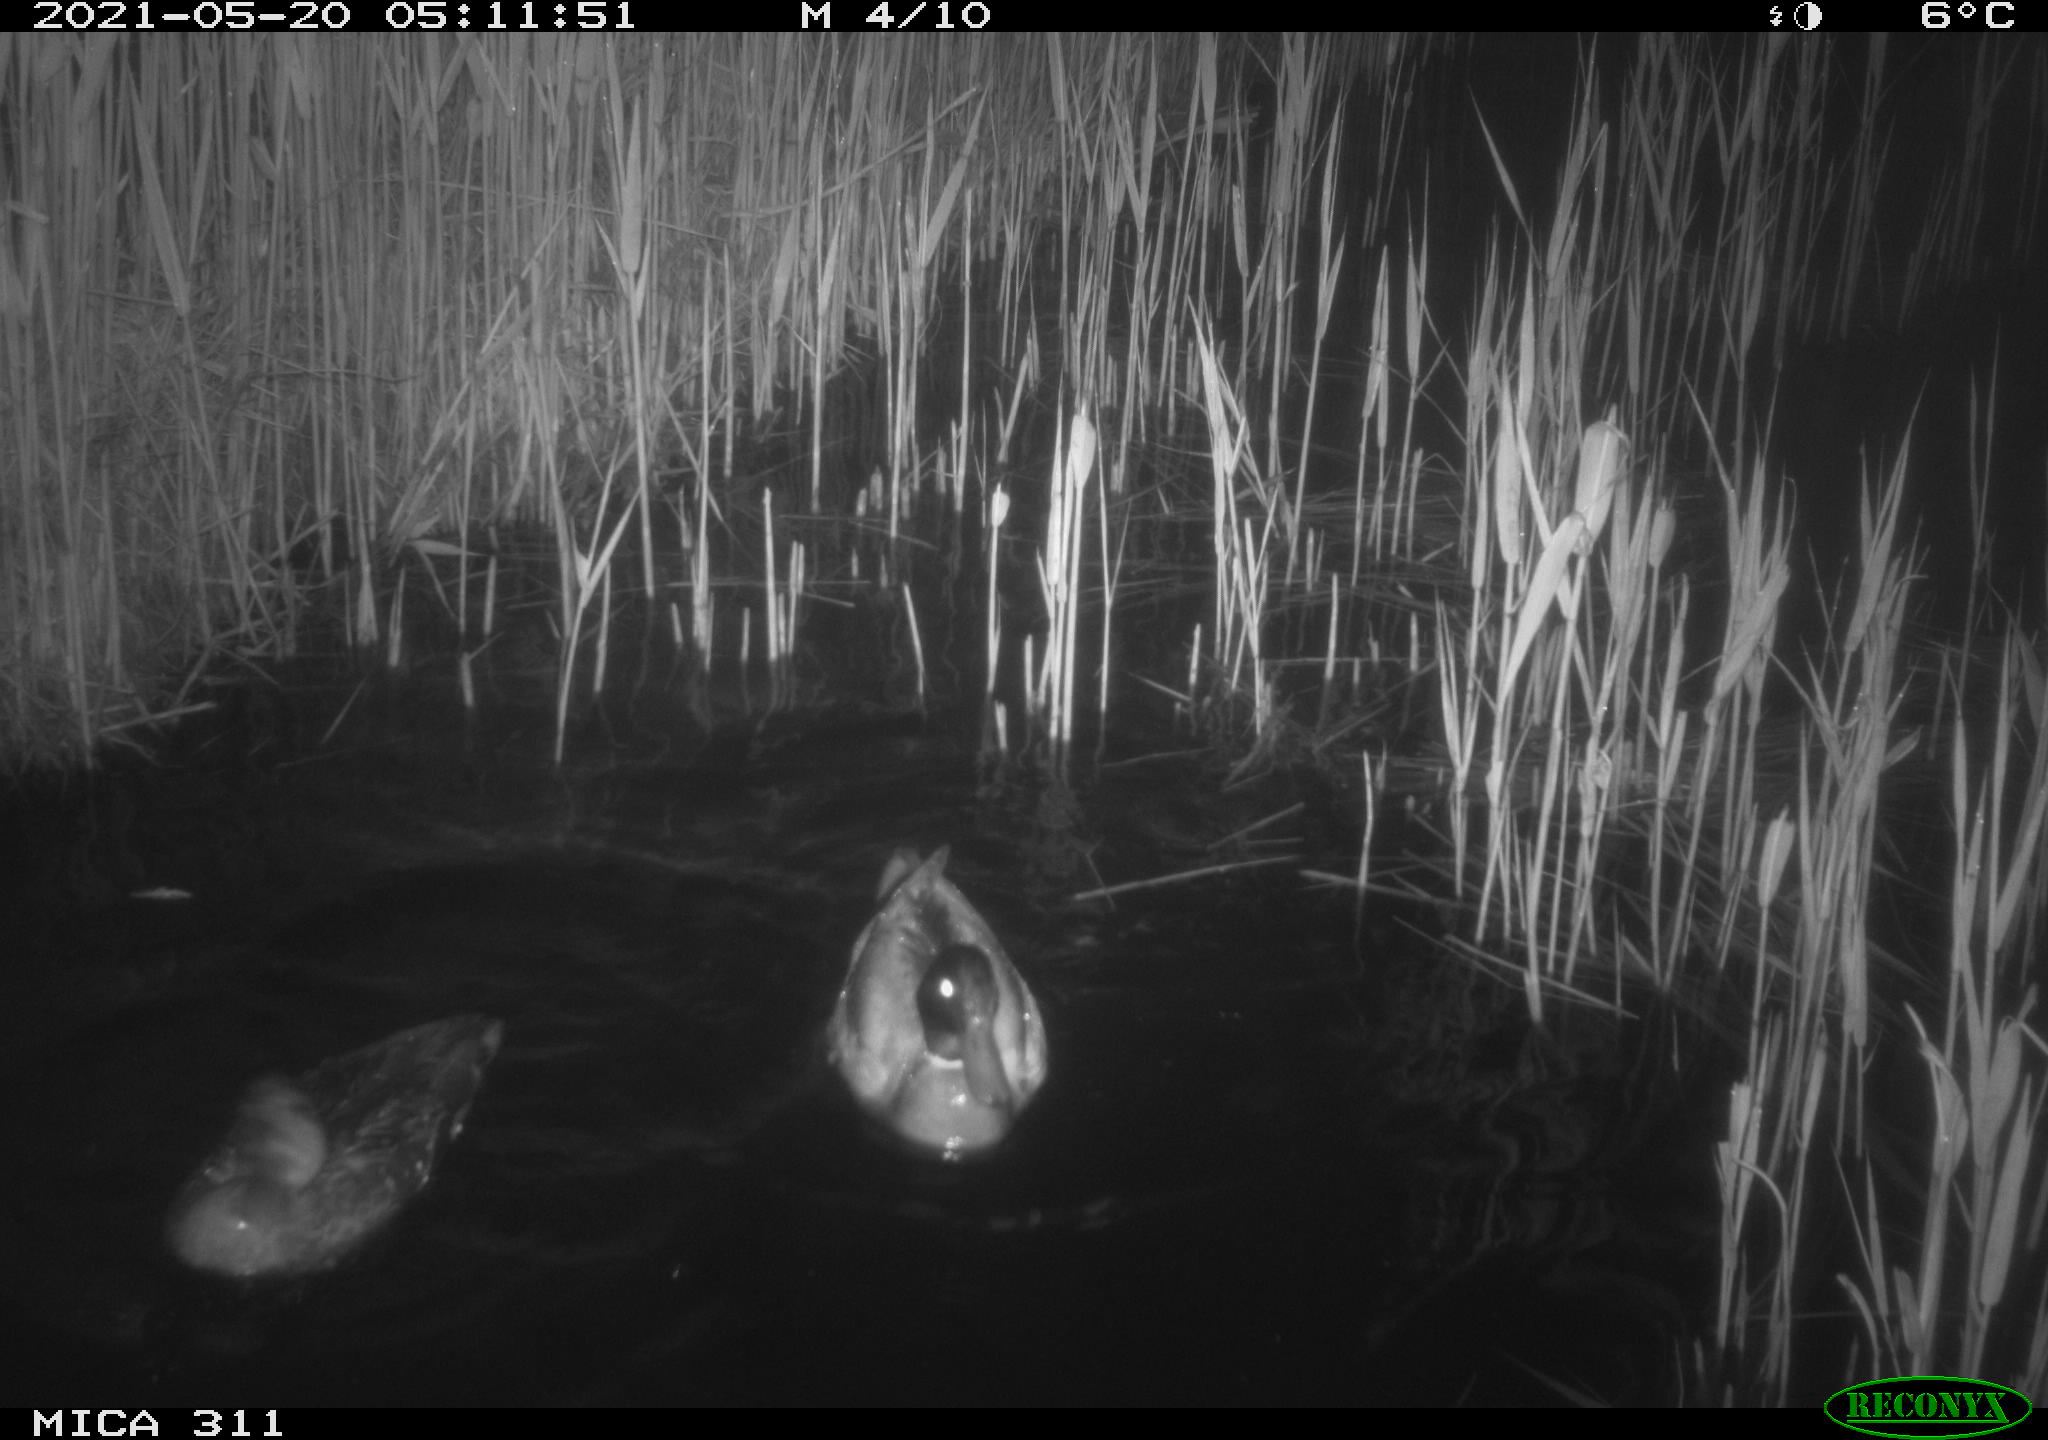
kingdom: Animalia
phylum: Chordata
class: Aves
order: Anseriformes
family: Anatidae
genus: Anas
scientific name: Anas
